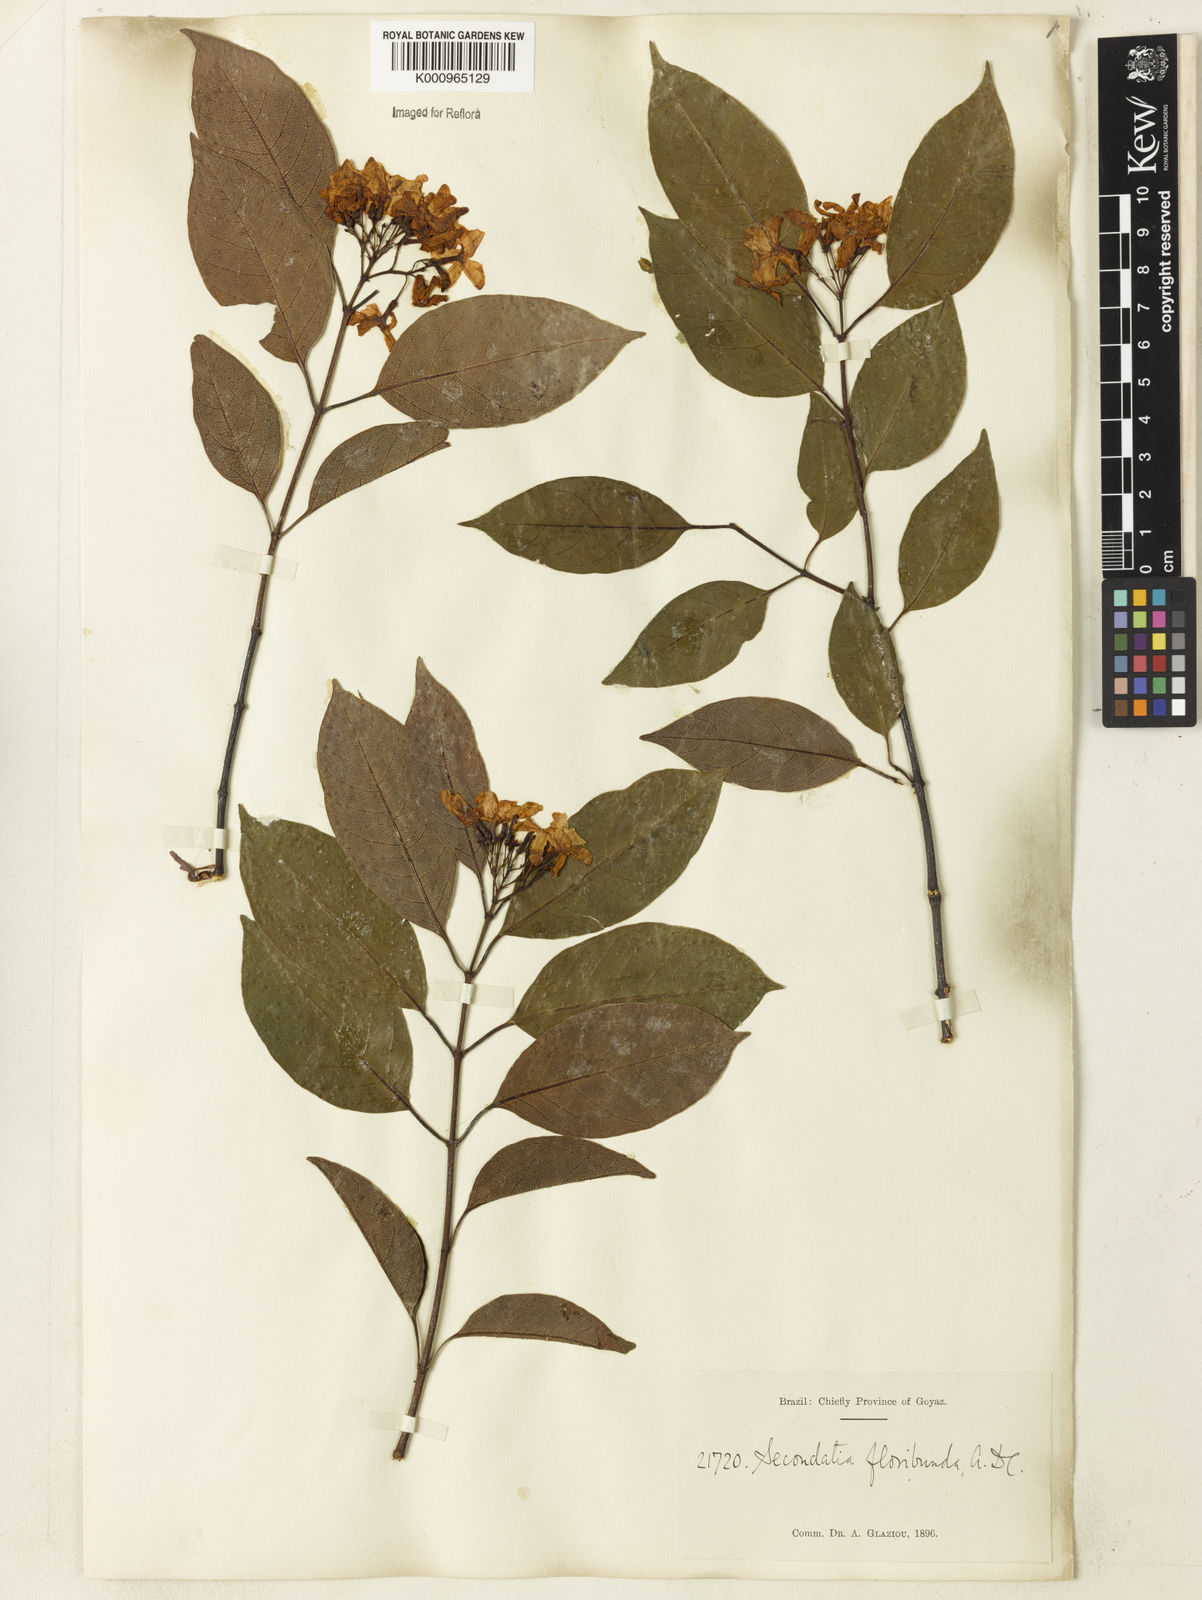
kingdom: Plantae
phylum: Tracheophyta
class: Magnoliopsida
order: Gentianales
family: Apocynaceae
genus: Secondatia
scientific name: Secondatia floribunda
